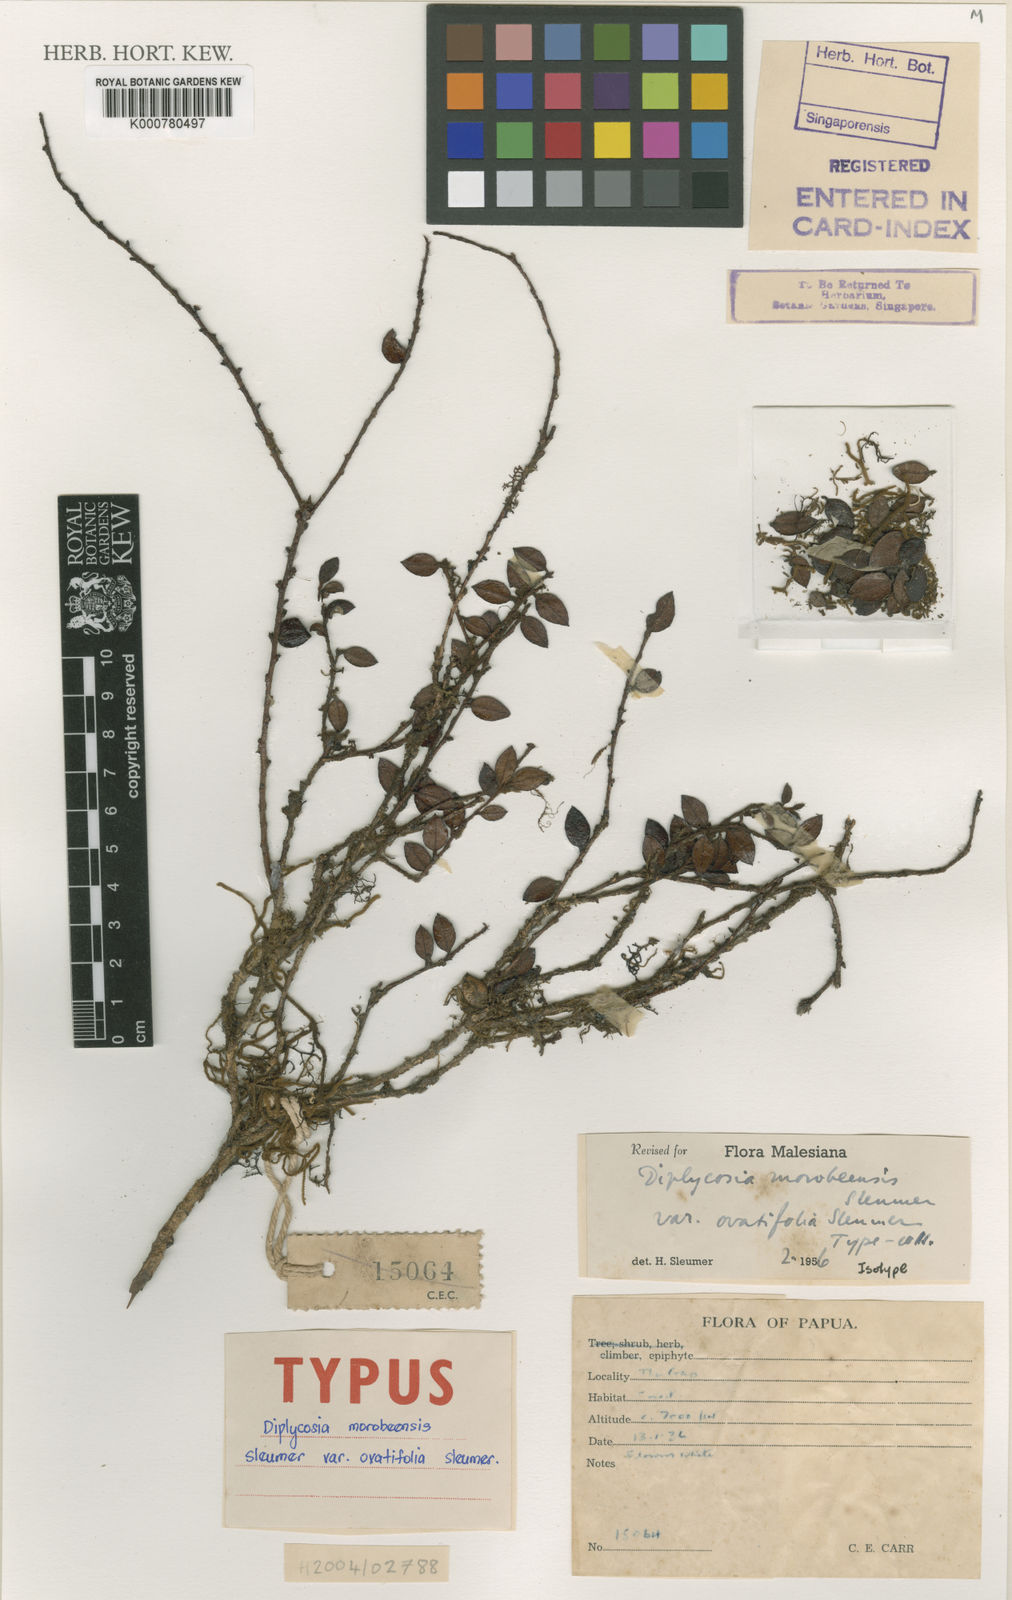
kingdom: Plantae
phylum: Tracheophyta
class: Magnoliopsida
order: Ericales
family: Ericaceae
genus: Gaultheria
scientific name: Gaultheria morobeensis
